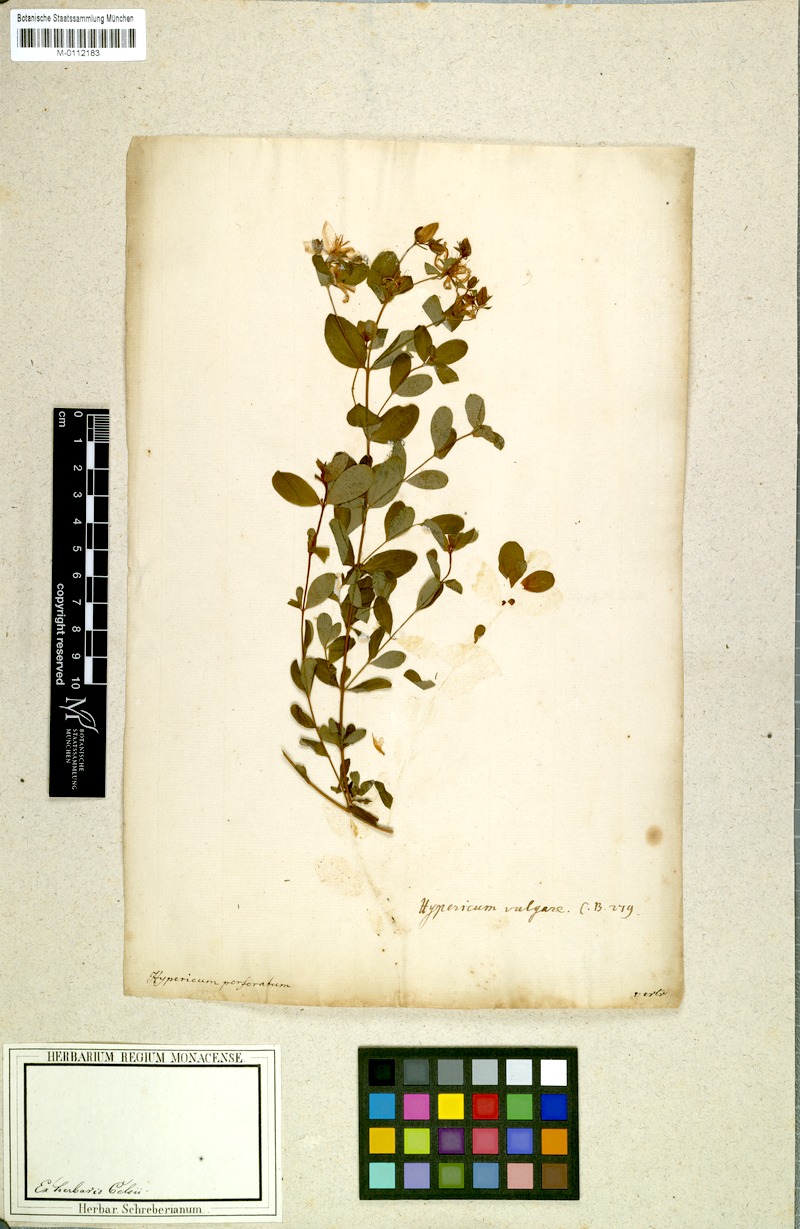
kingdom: Plantae
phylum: Tracheophyta
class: Magnoliopsida
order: Malpighiales
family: Hypericaceae
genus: Hypericum
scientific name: Hypericum perforatum
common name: Common st. johnswort
